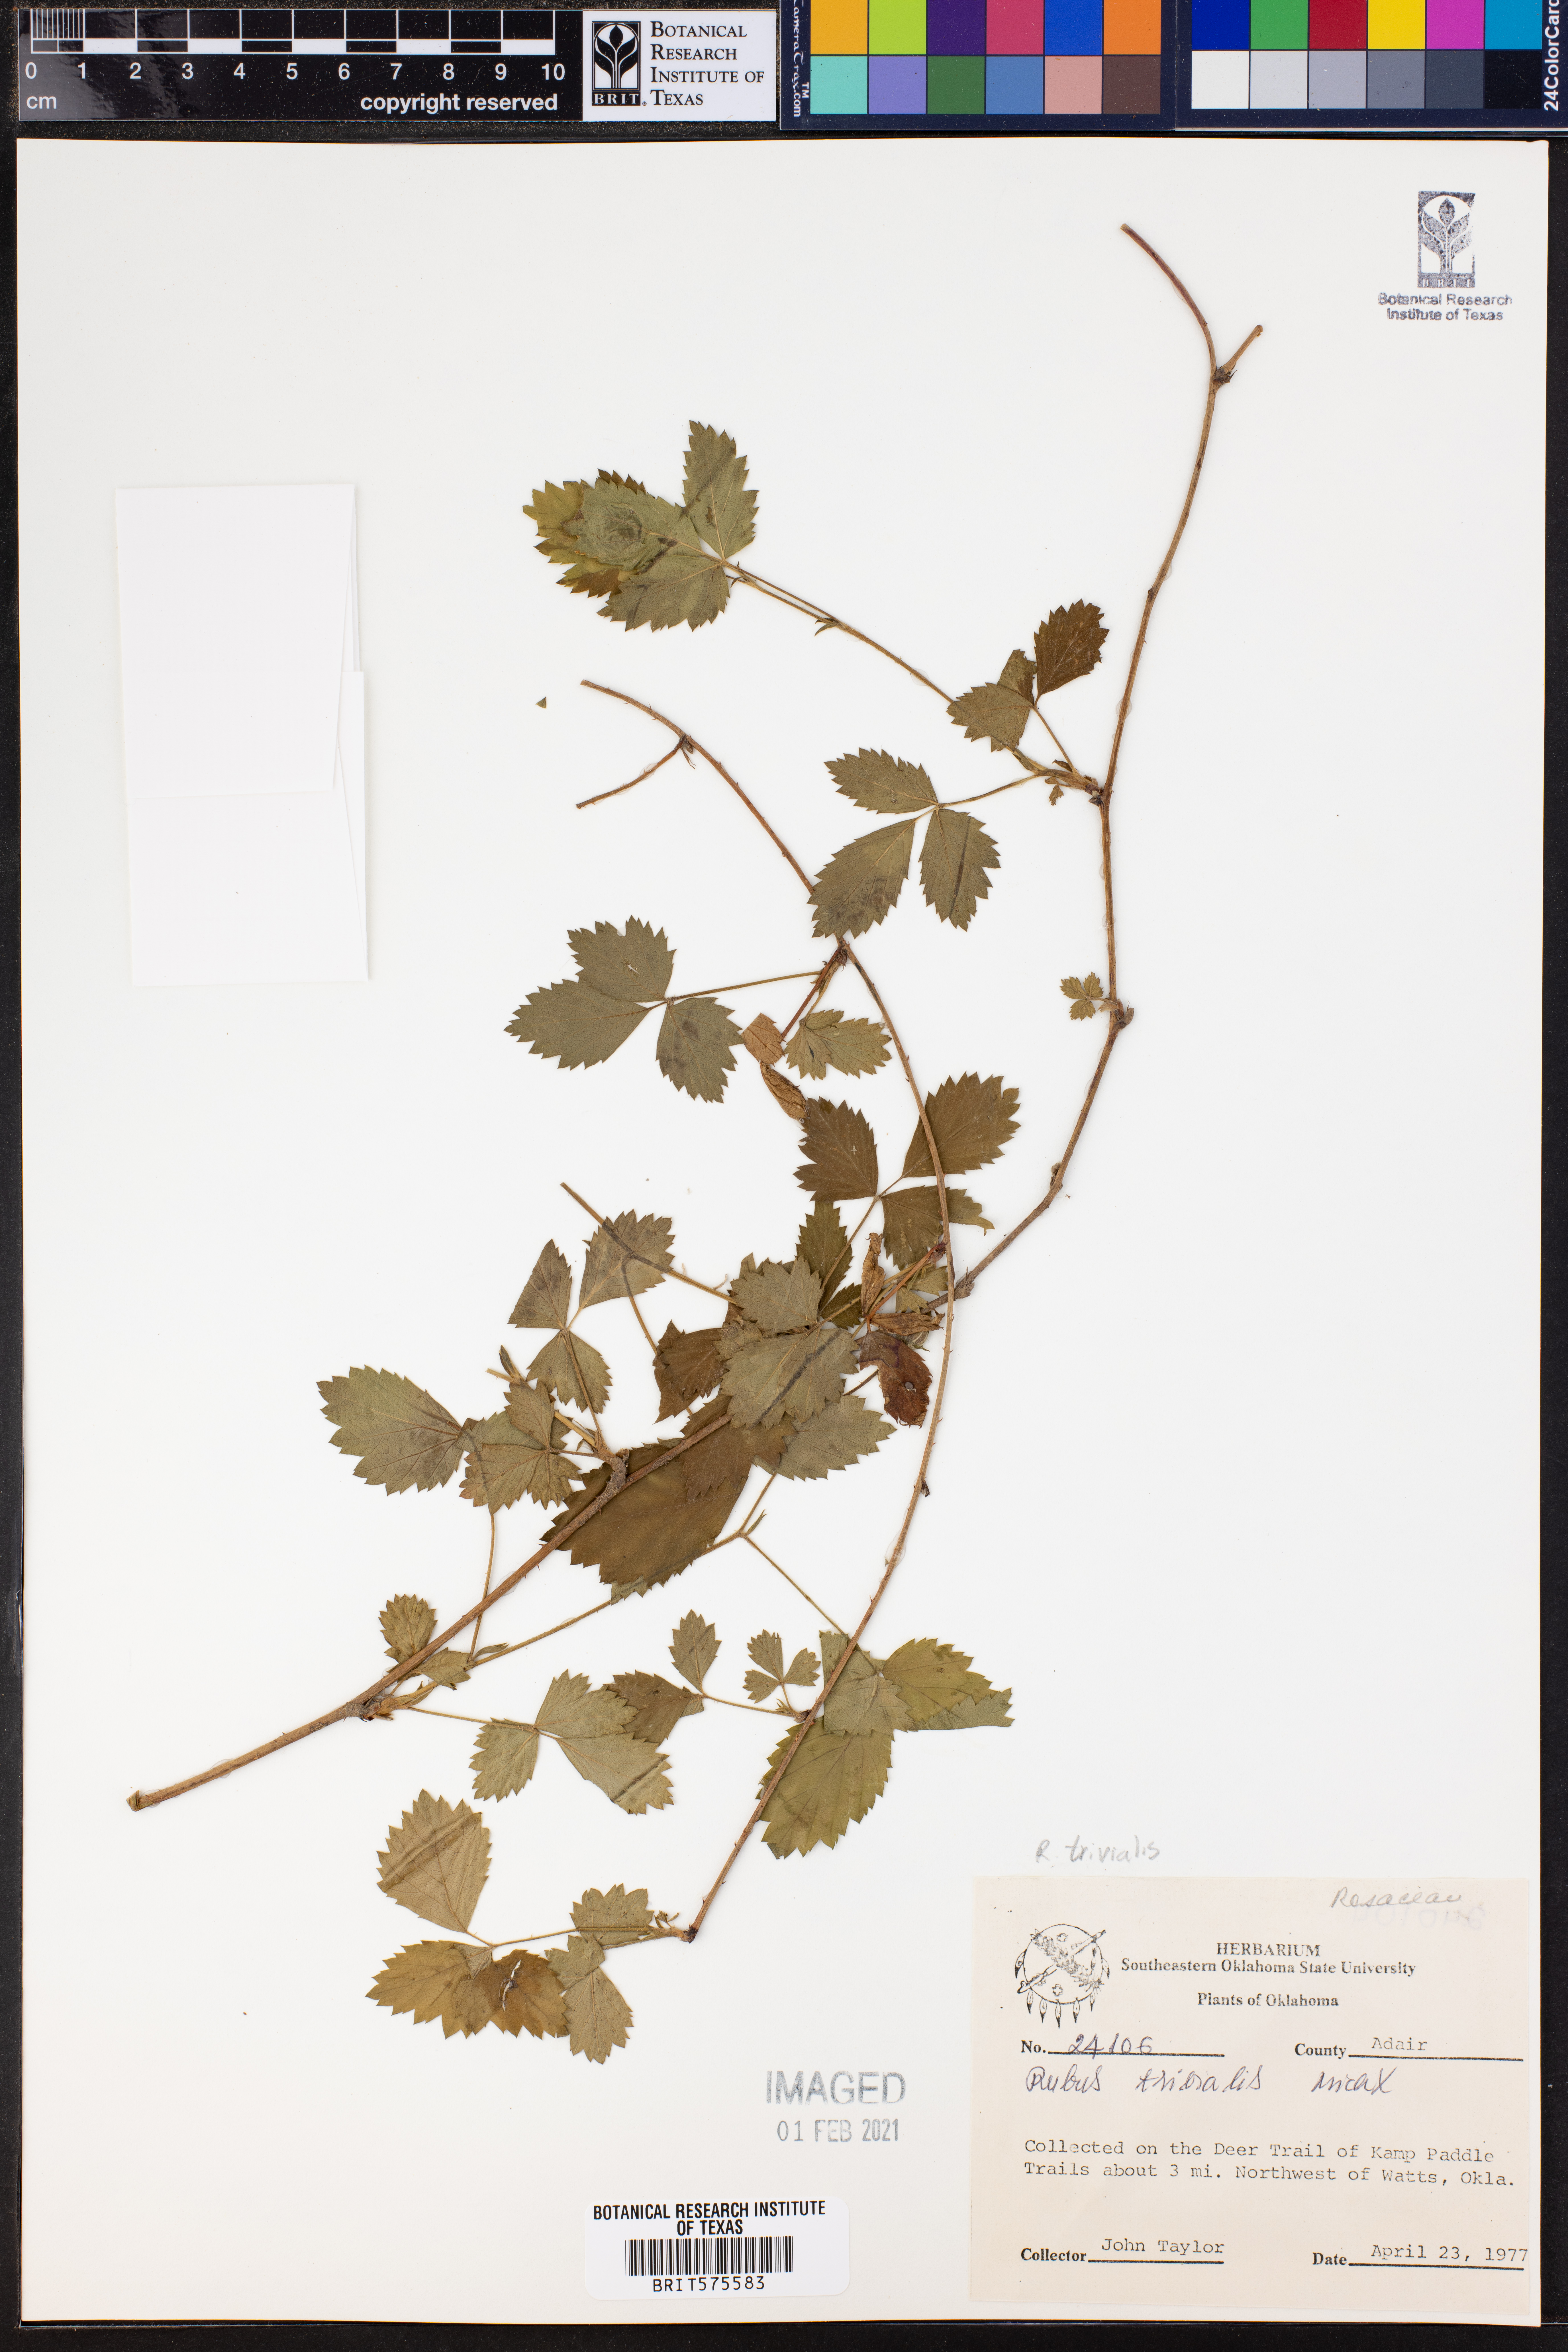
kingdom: Plantae
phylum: Tracheophyta
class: Magnoliopsida
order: Rosales
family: Rosaceae
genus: Rubus
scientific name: Rubus trivialis
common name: Southern dewberry
